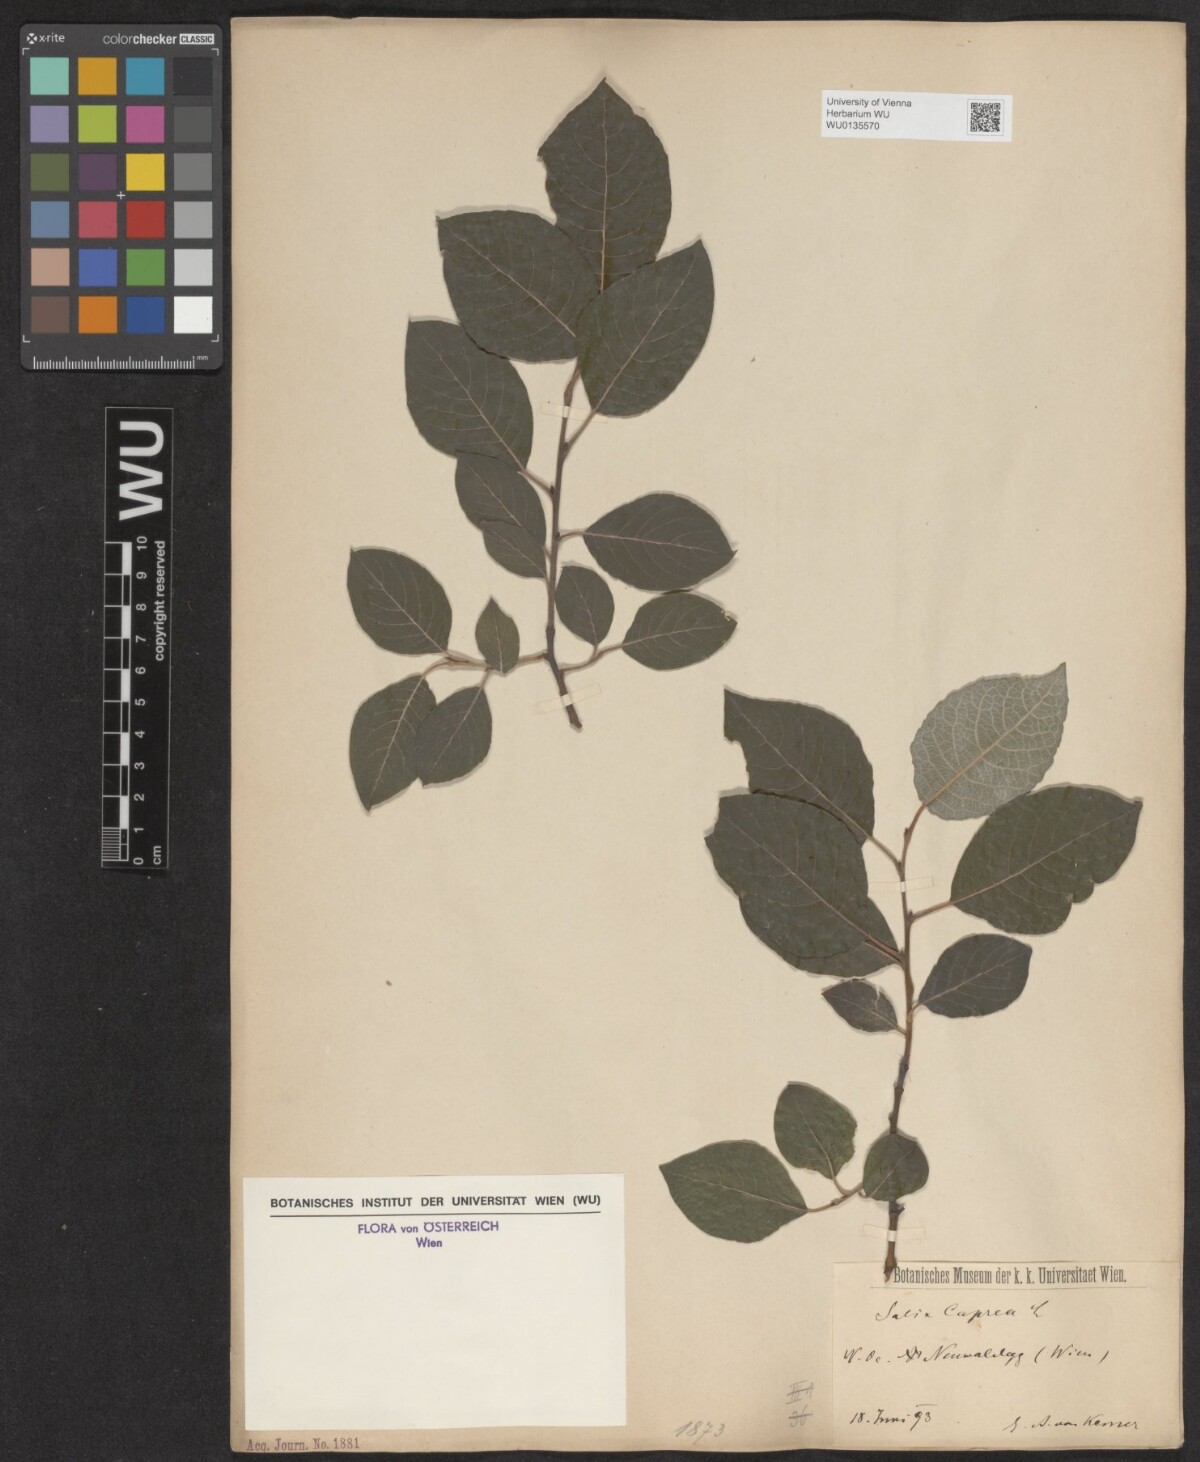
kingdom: Plantae
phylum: Tracheophyta
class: Magnoliopsida
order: Malpighiales
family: Salicaceae
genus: Salix
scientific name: Salix caprea
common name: Goat willow
